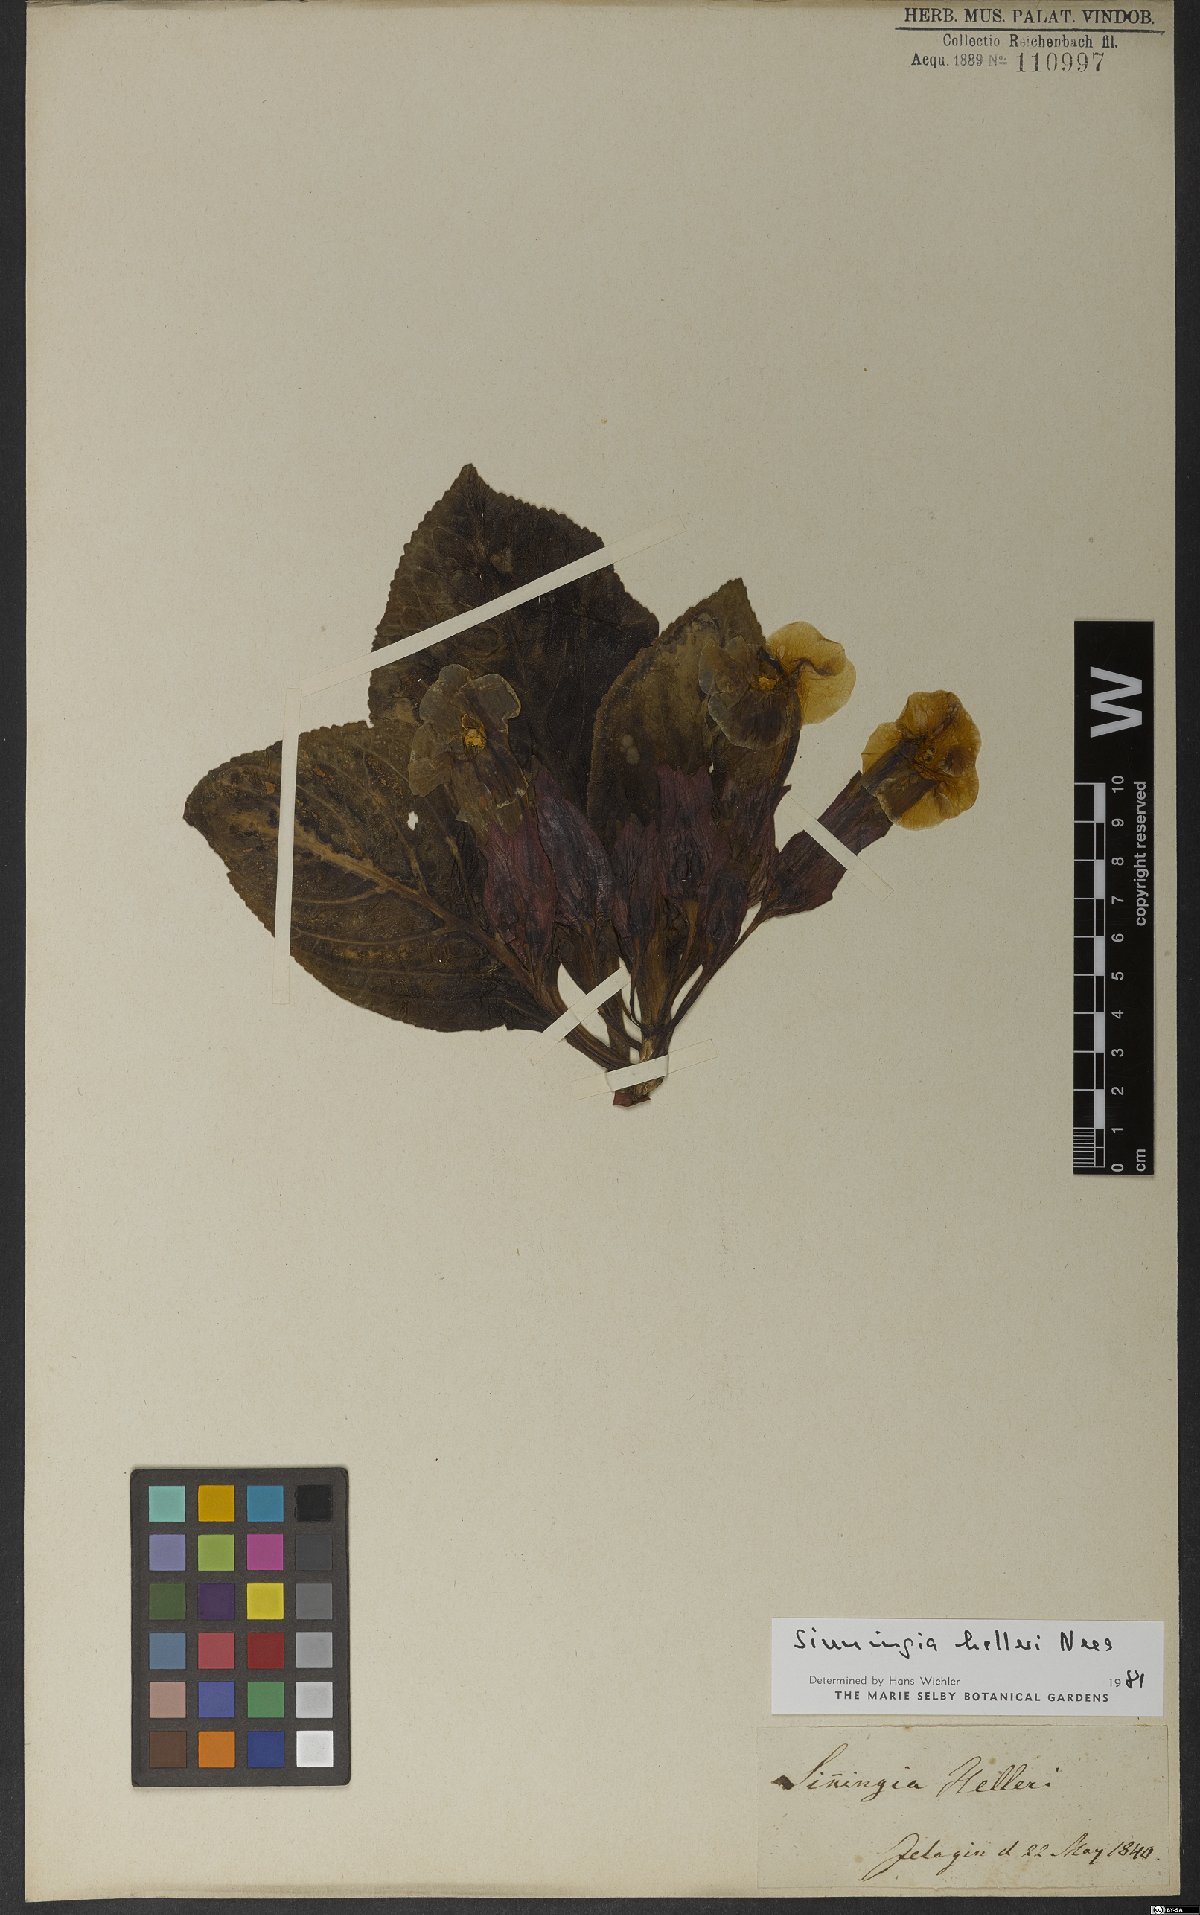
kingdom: Plantae
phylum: Tracheophyta
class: Magnoliopsida
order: Lamiales
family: Gesneriaceae
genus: Sinningia
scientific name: Sinningia helleri
